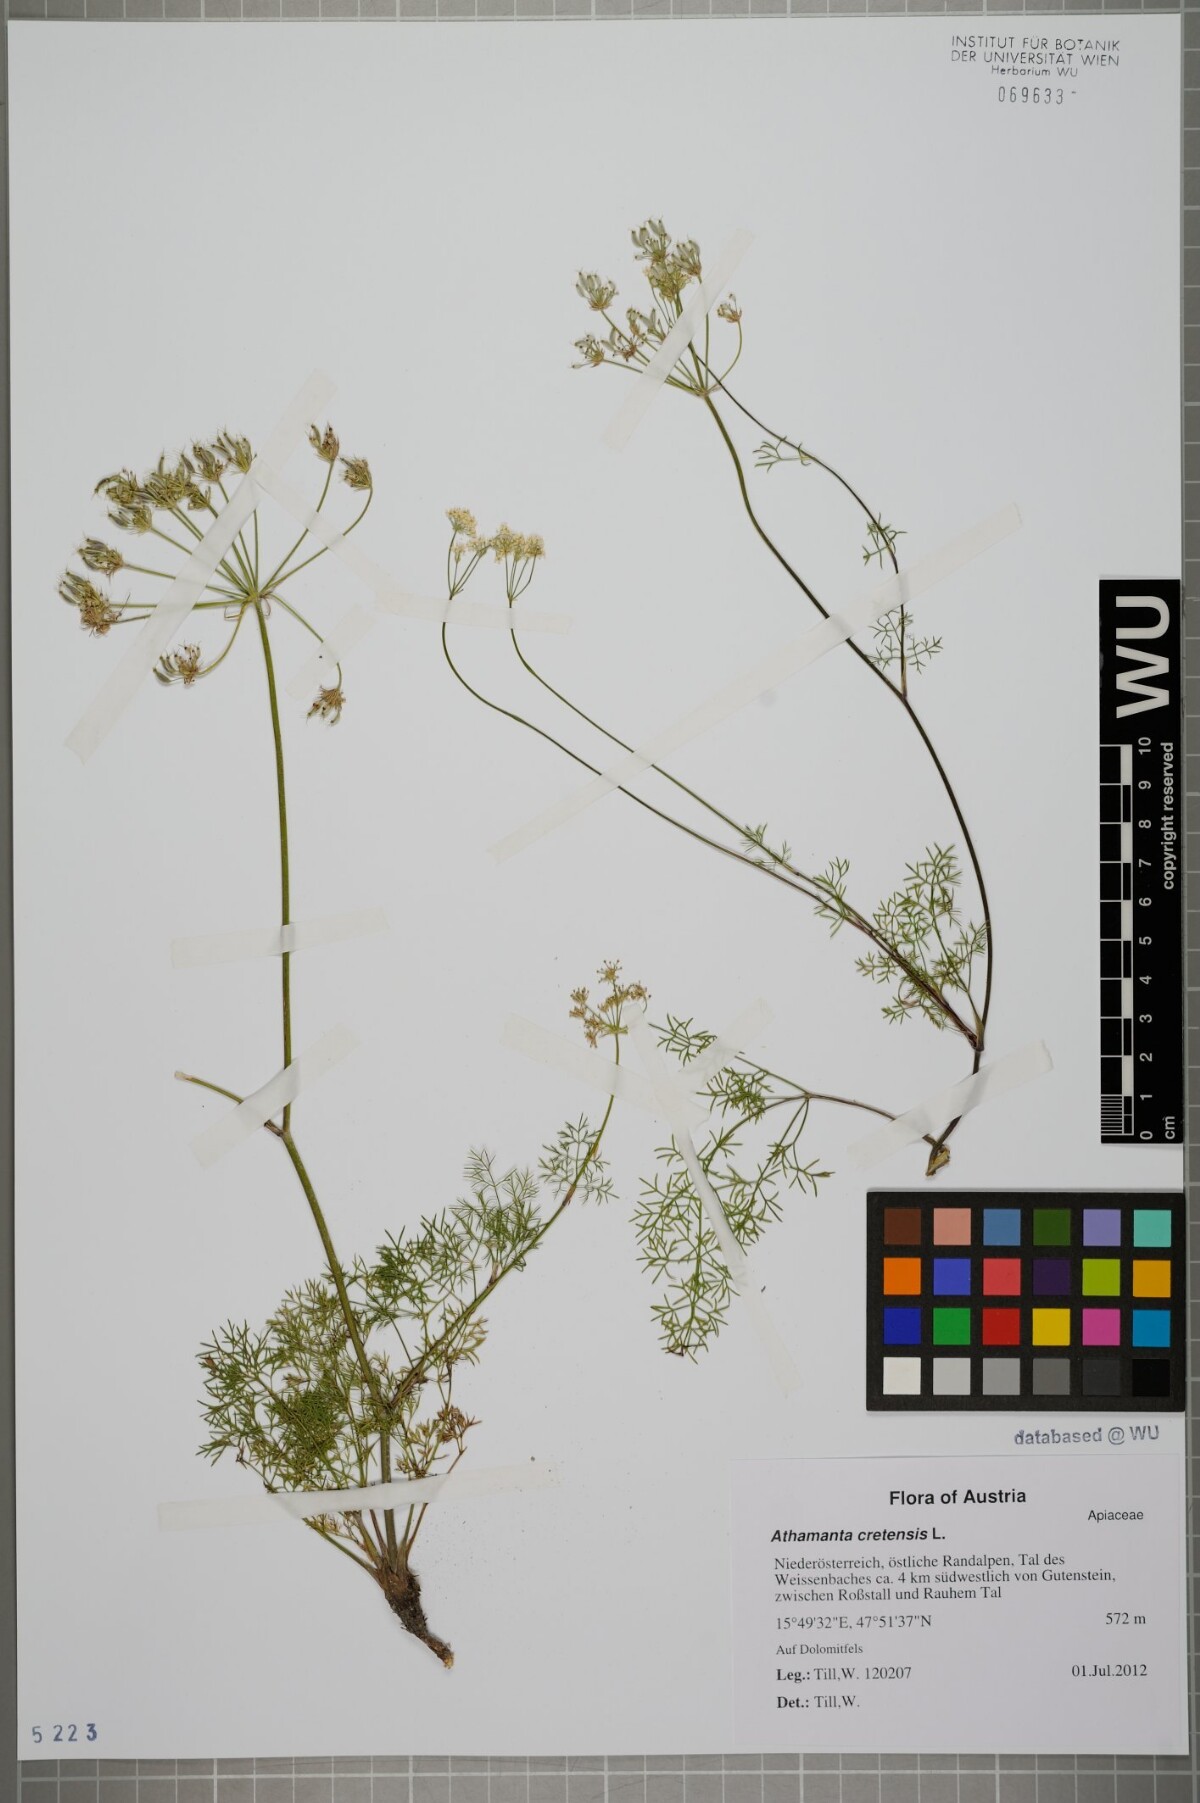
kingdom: Plantae
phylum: Tracheophyta
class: Magnoliopsida
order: Apiales
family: Apiaceae
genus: Athamanta
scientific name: Athamanta cretensis
